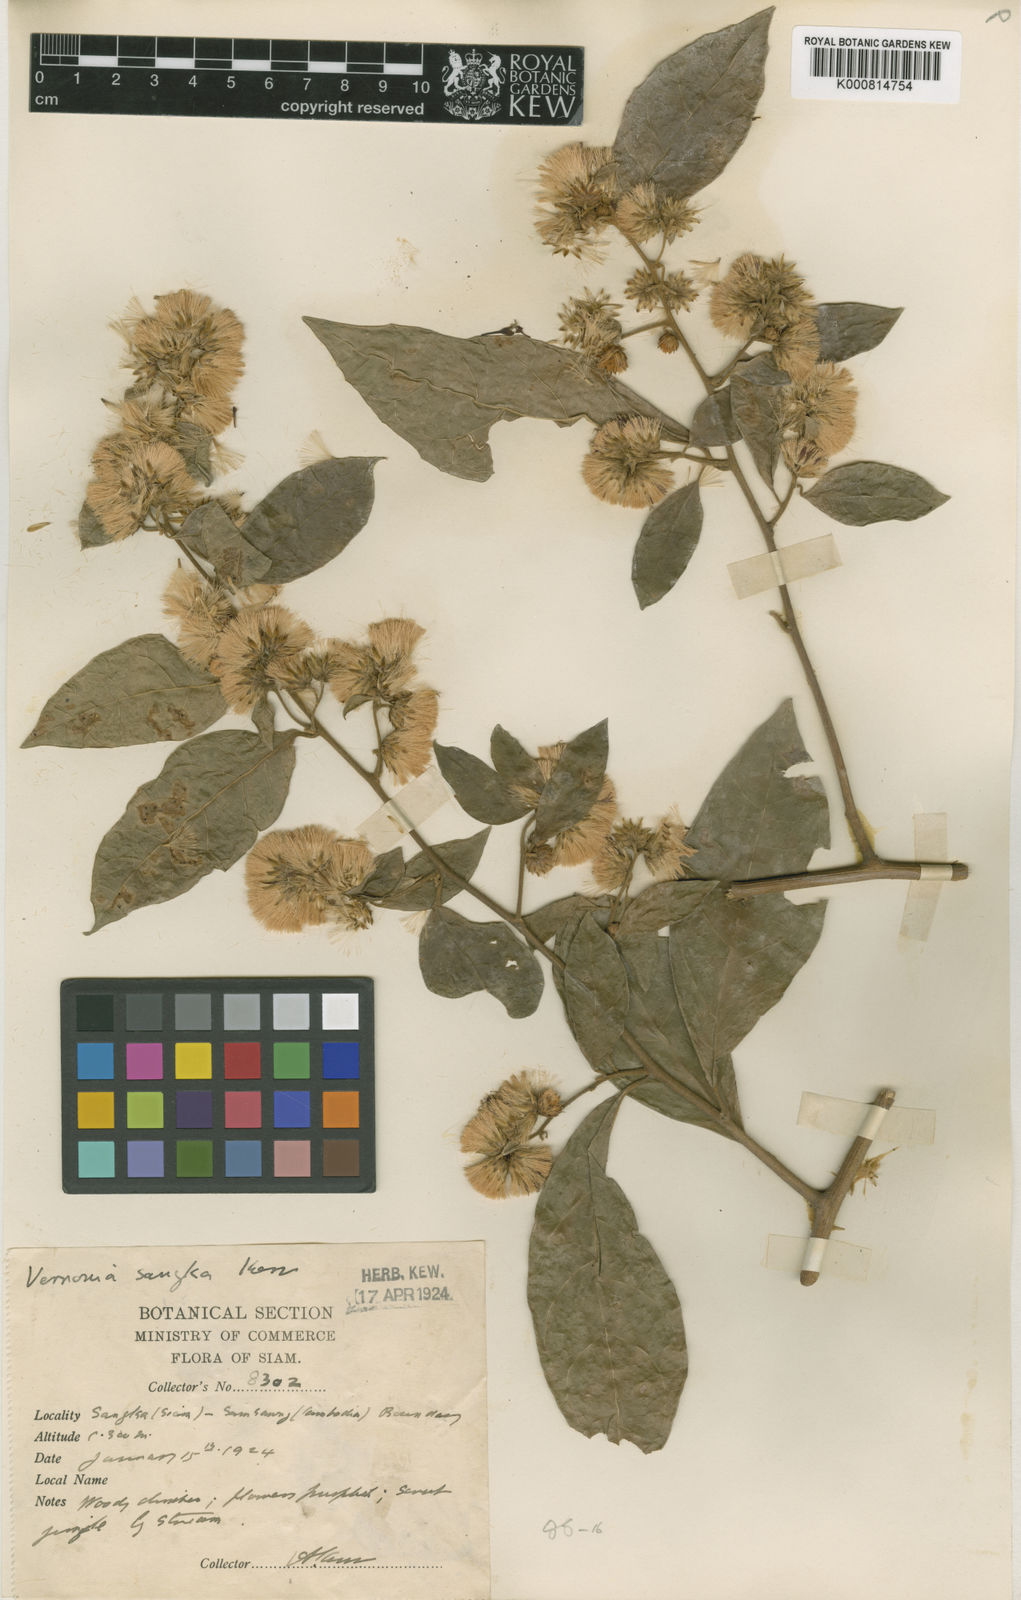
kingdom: Plantae
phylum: Tracheophyta
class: Magnoliopsida
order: Asterales
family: Asteraceae
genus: Decaneuropsis
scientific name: Decaneuropsis cumingiana
